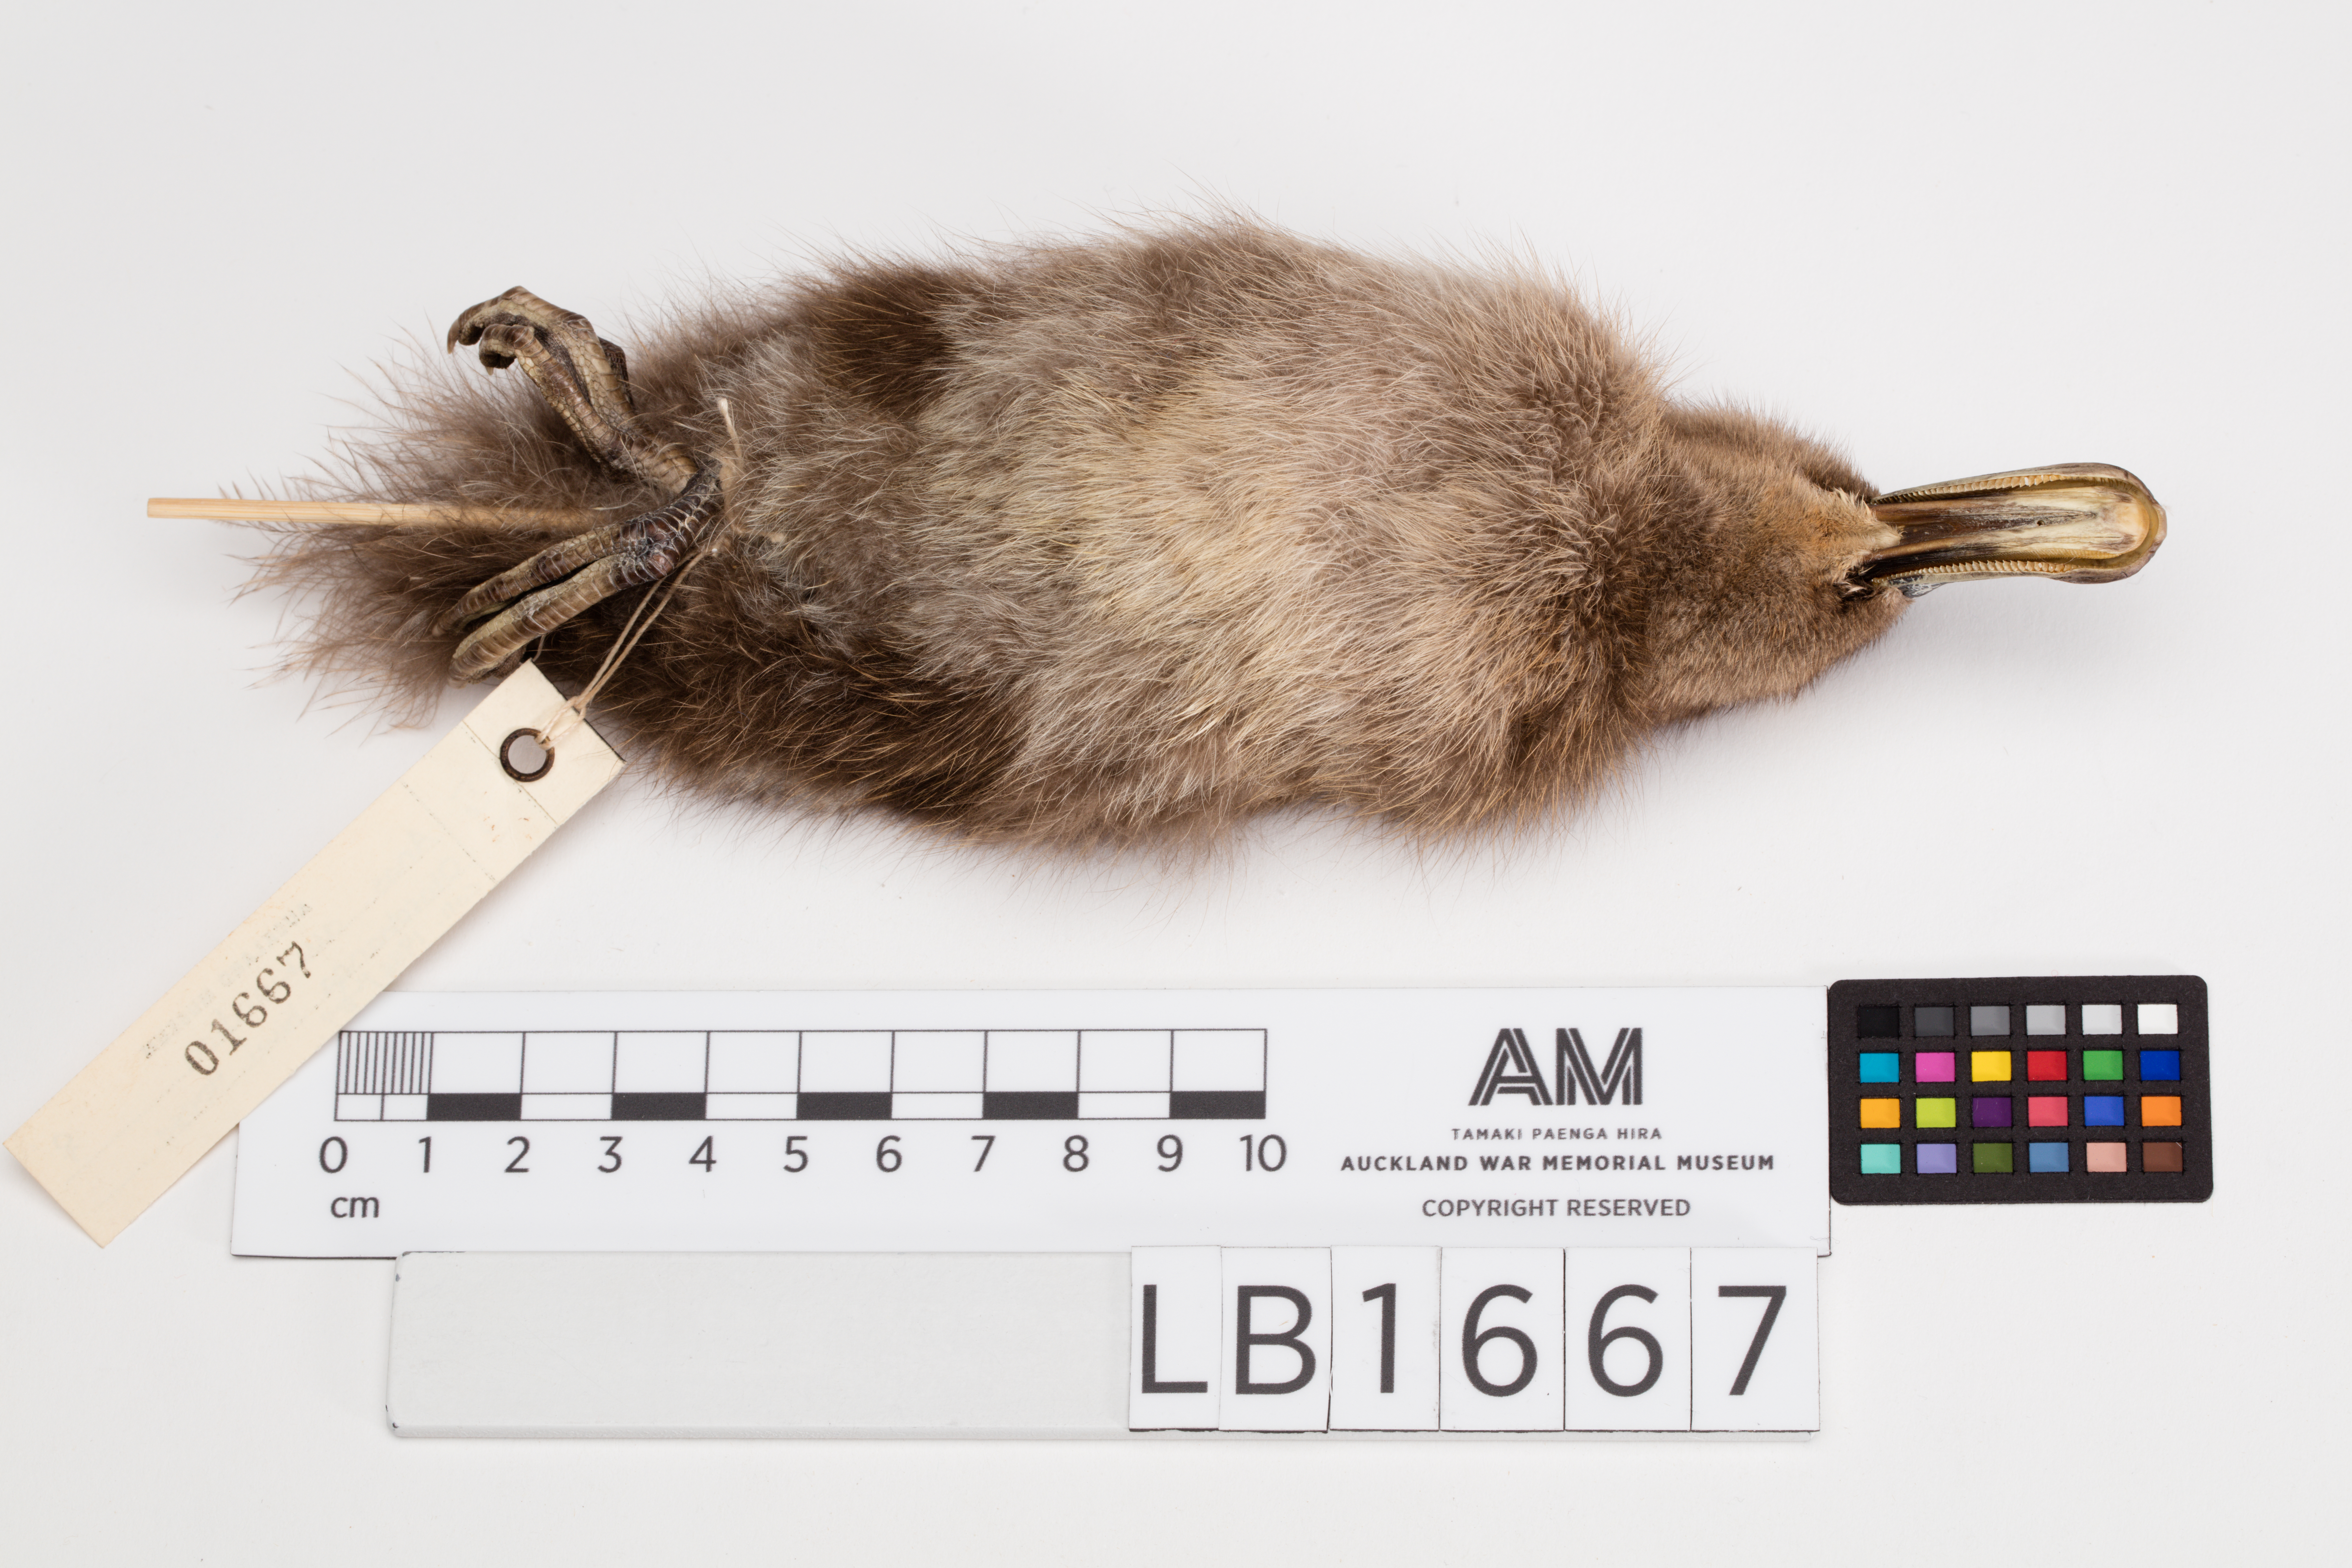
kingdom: Animalia
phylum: Chordata
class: Aves
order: Anseriformes
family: Anatidae
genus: Anas
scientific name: Anas chlorotis
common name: Brown teal
